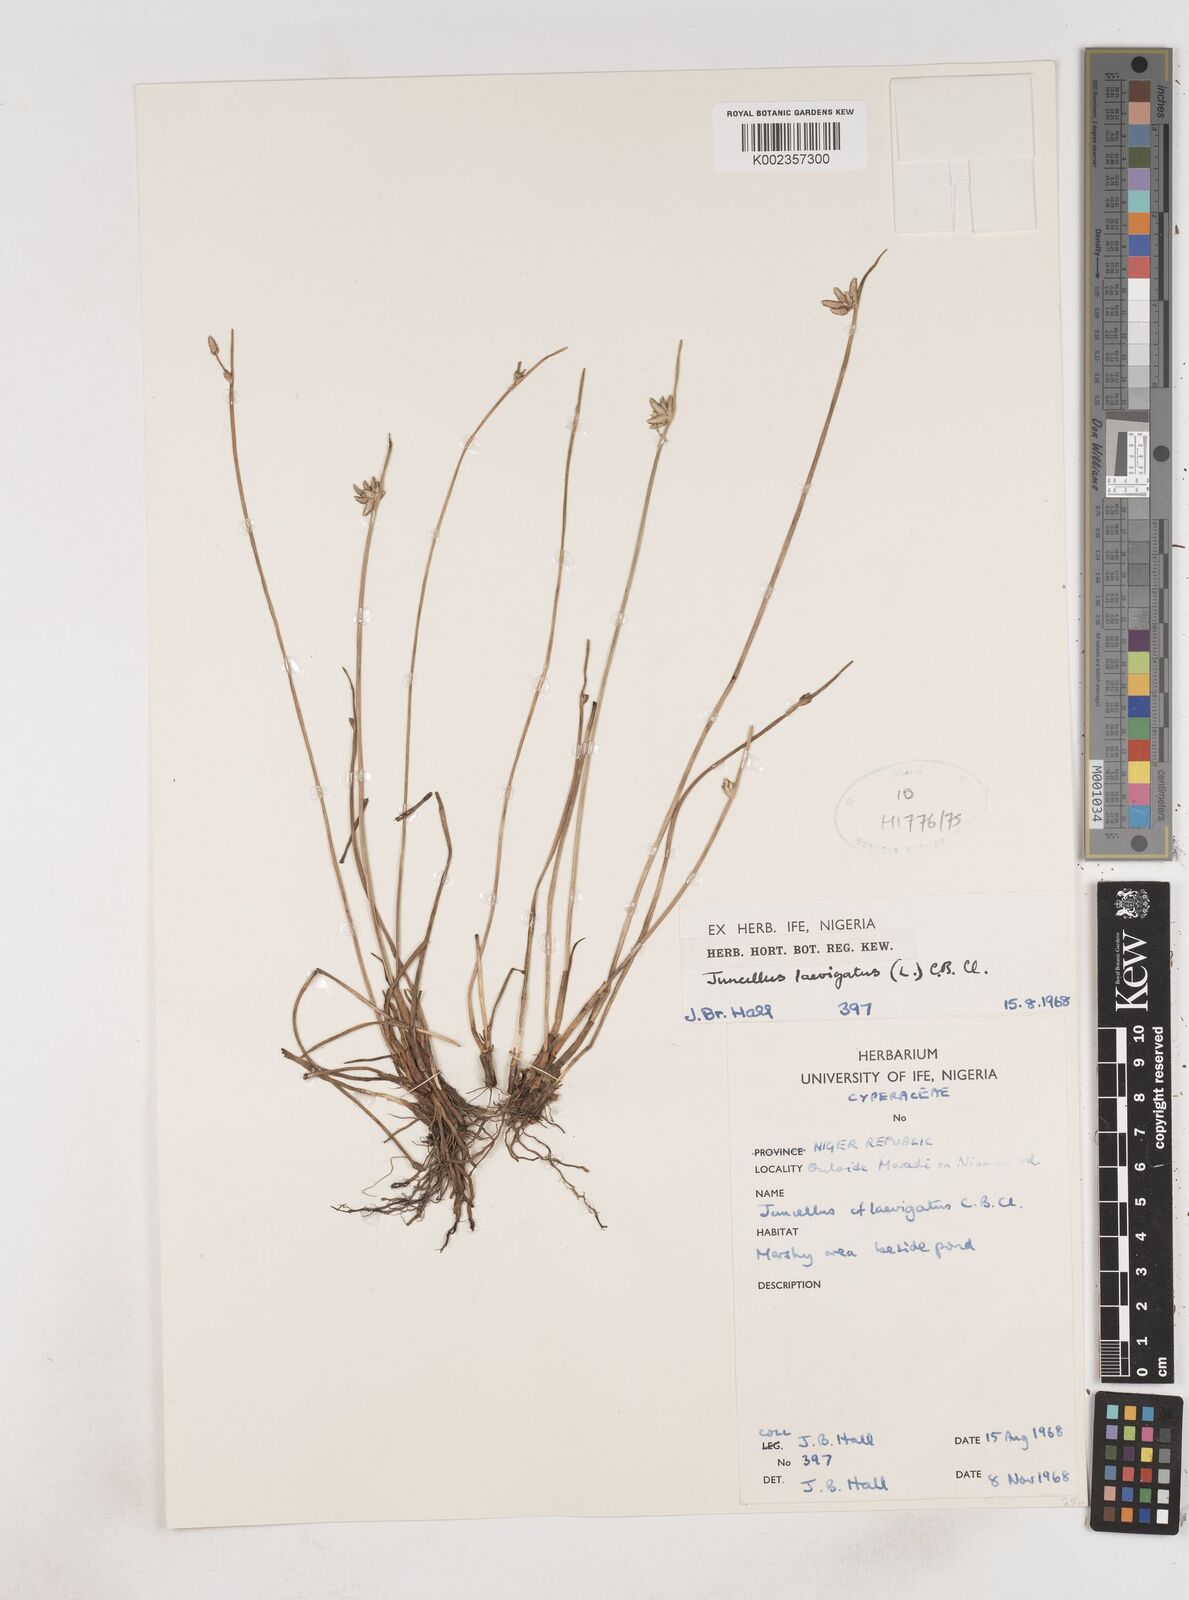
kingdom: Plantae
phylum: Tracheophyta
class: Liliopsida
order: Poales
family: Cyperaceae
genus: Cyperus
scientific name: Cyperus laevigatus
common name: Smooth flat sedge
